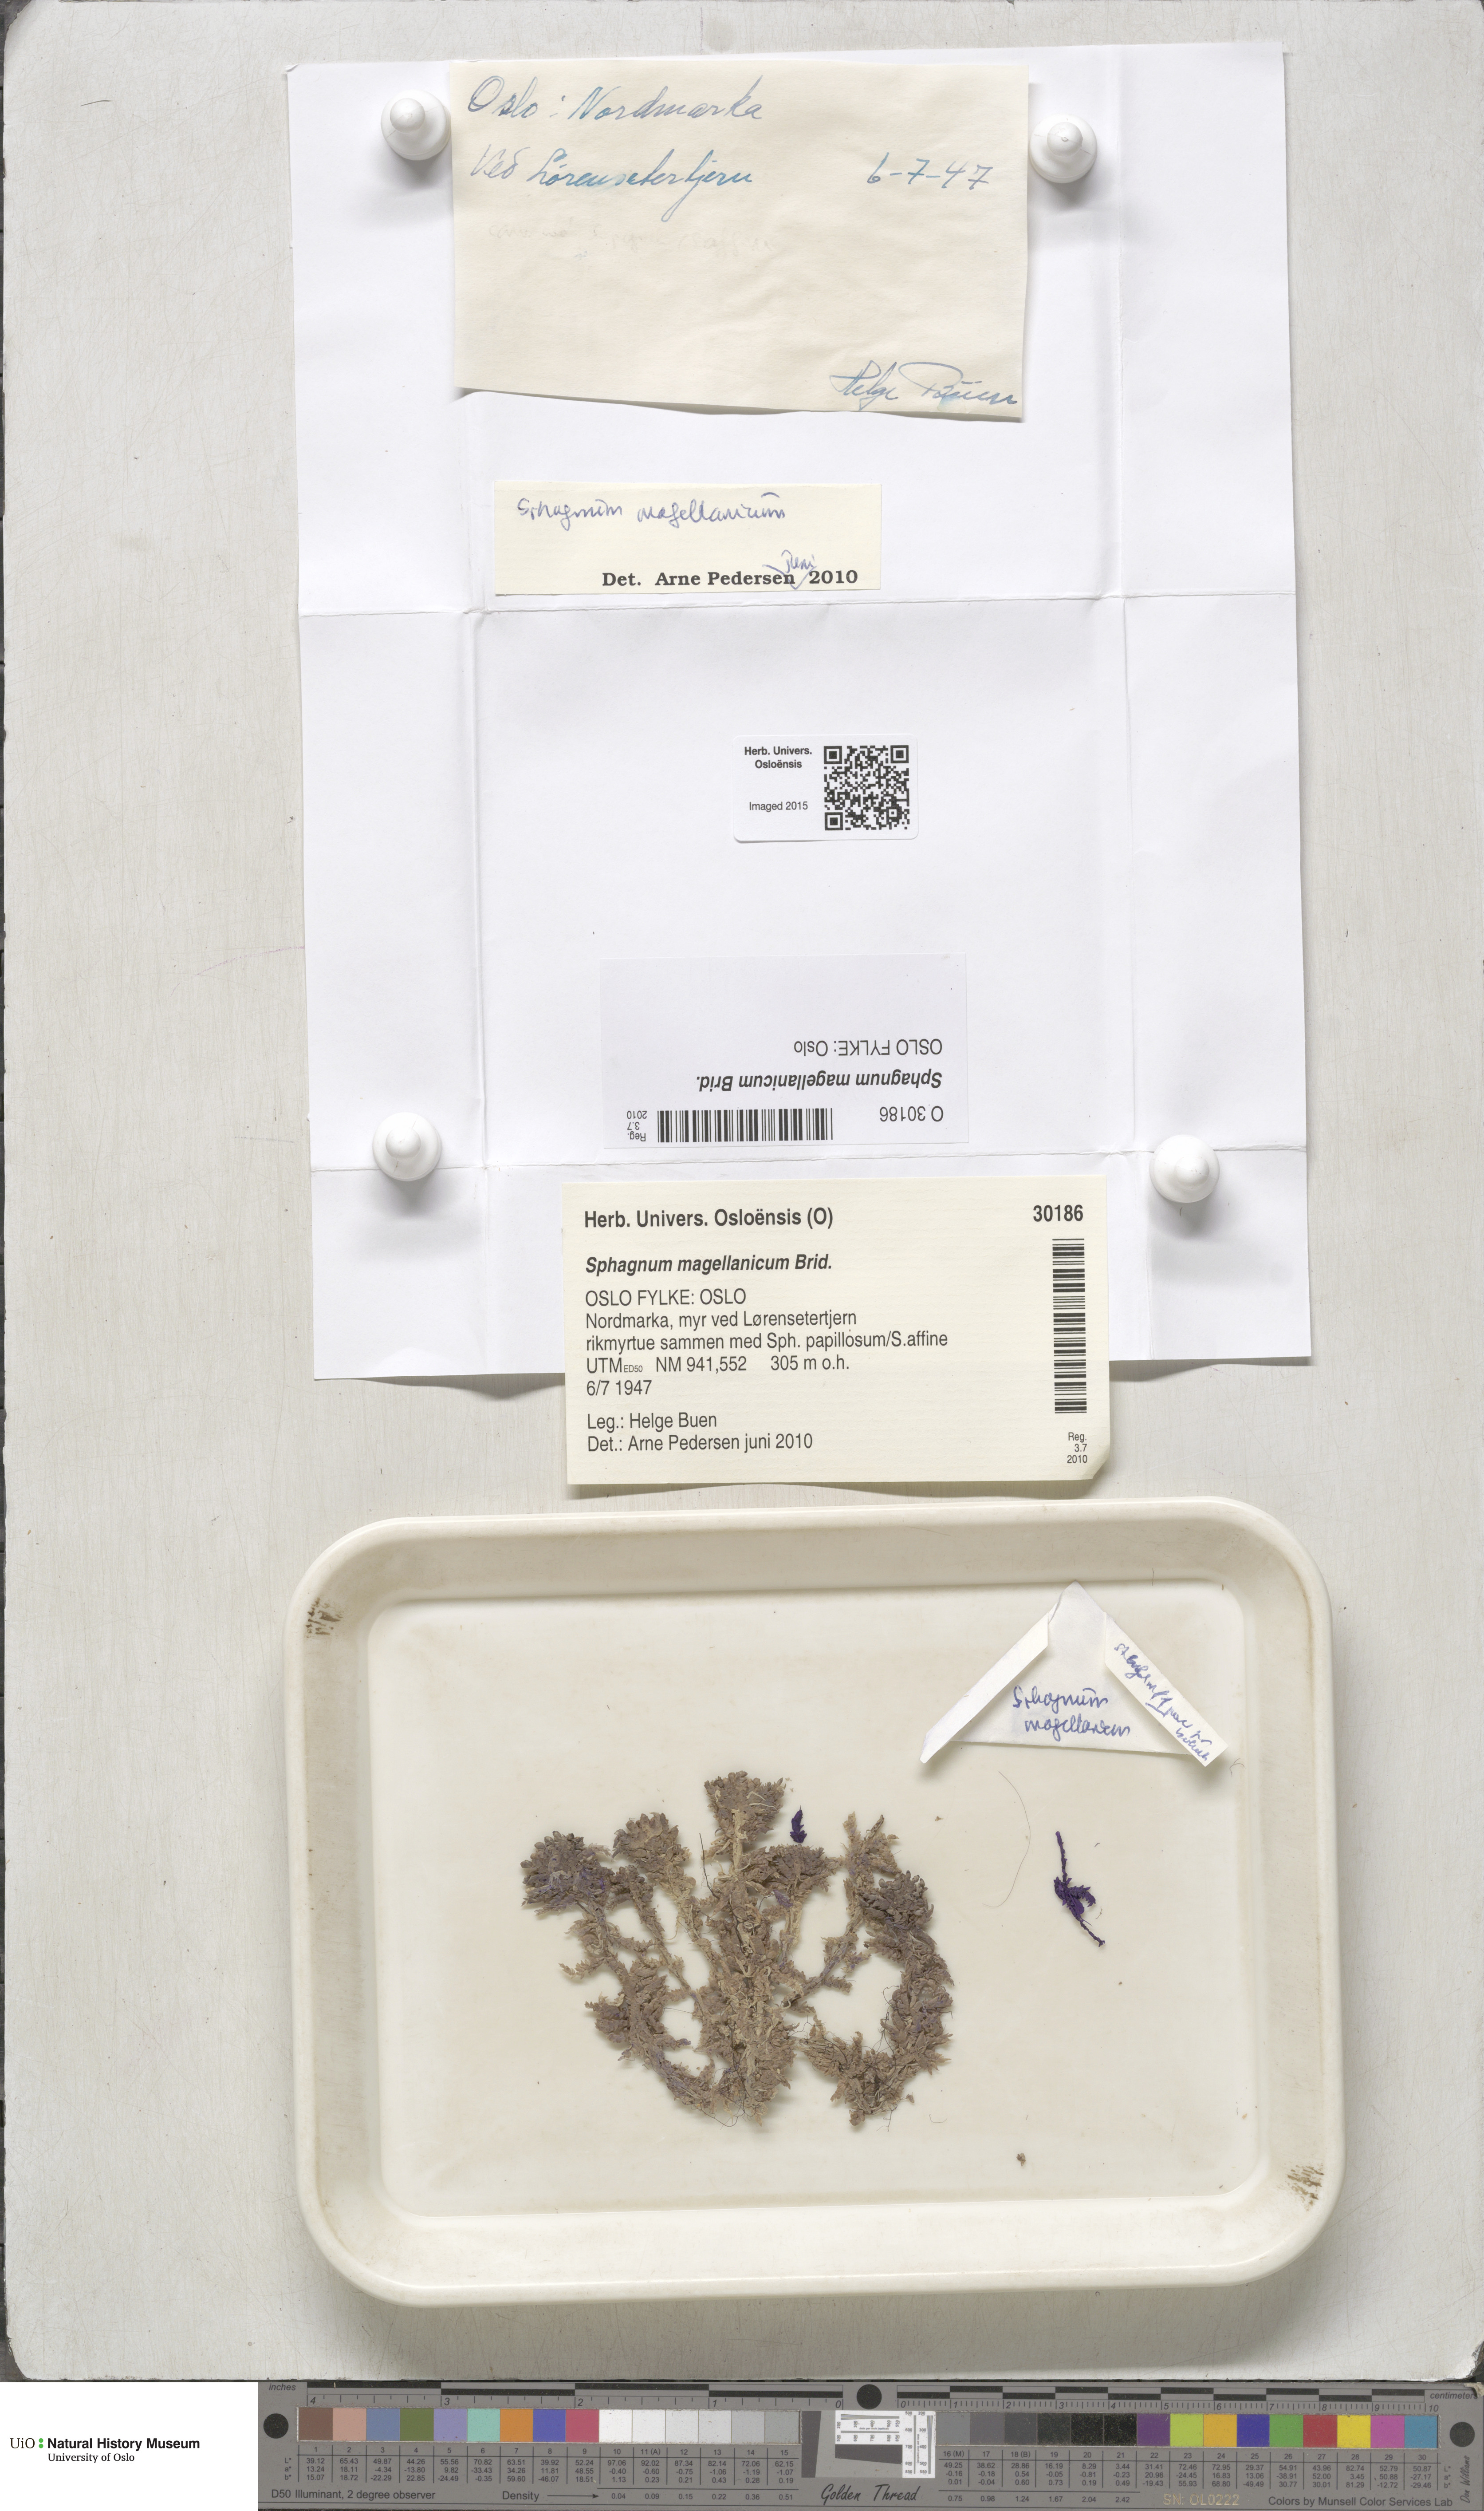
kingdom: Plantae
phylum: Bryophyta
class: Sphagnopsida
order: Sphagnales
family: Sphagnaceae
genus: Sphagnum
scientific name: Sphagnum magellanicum
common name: Magellan's peat moss
